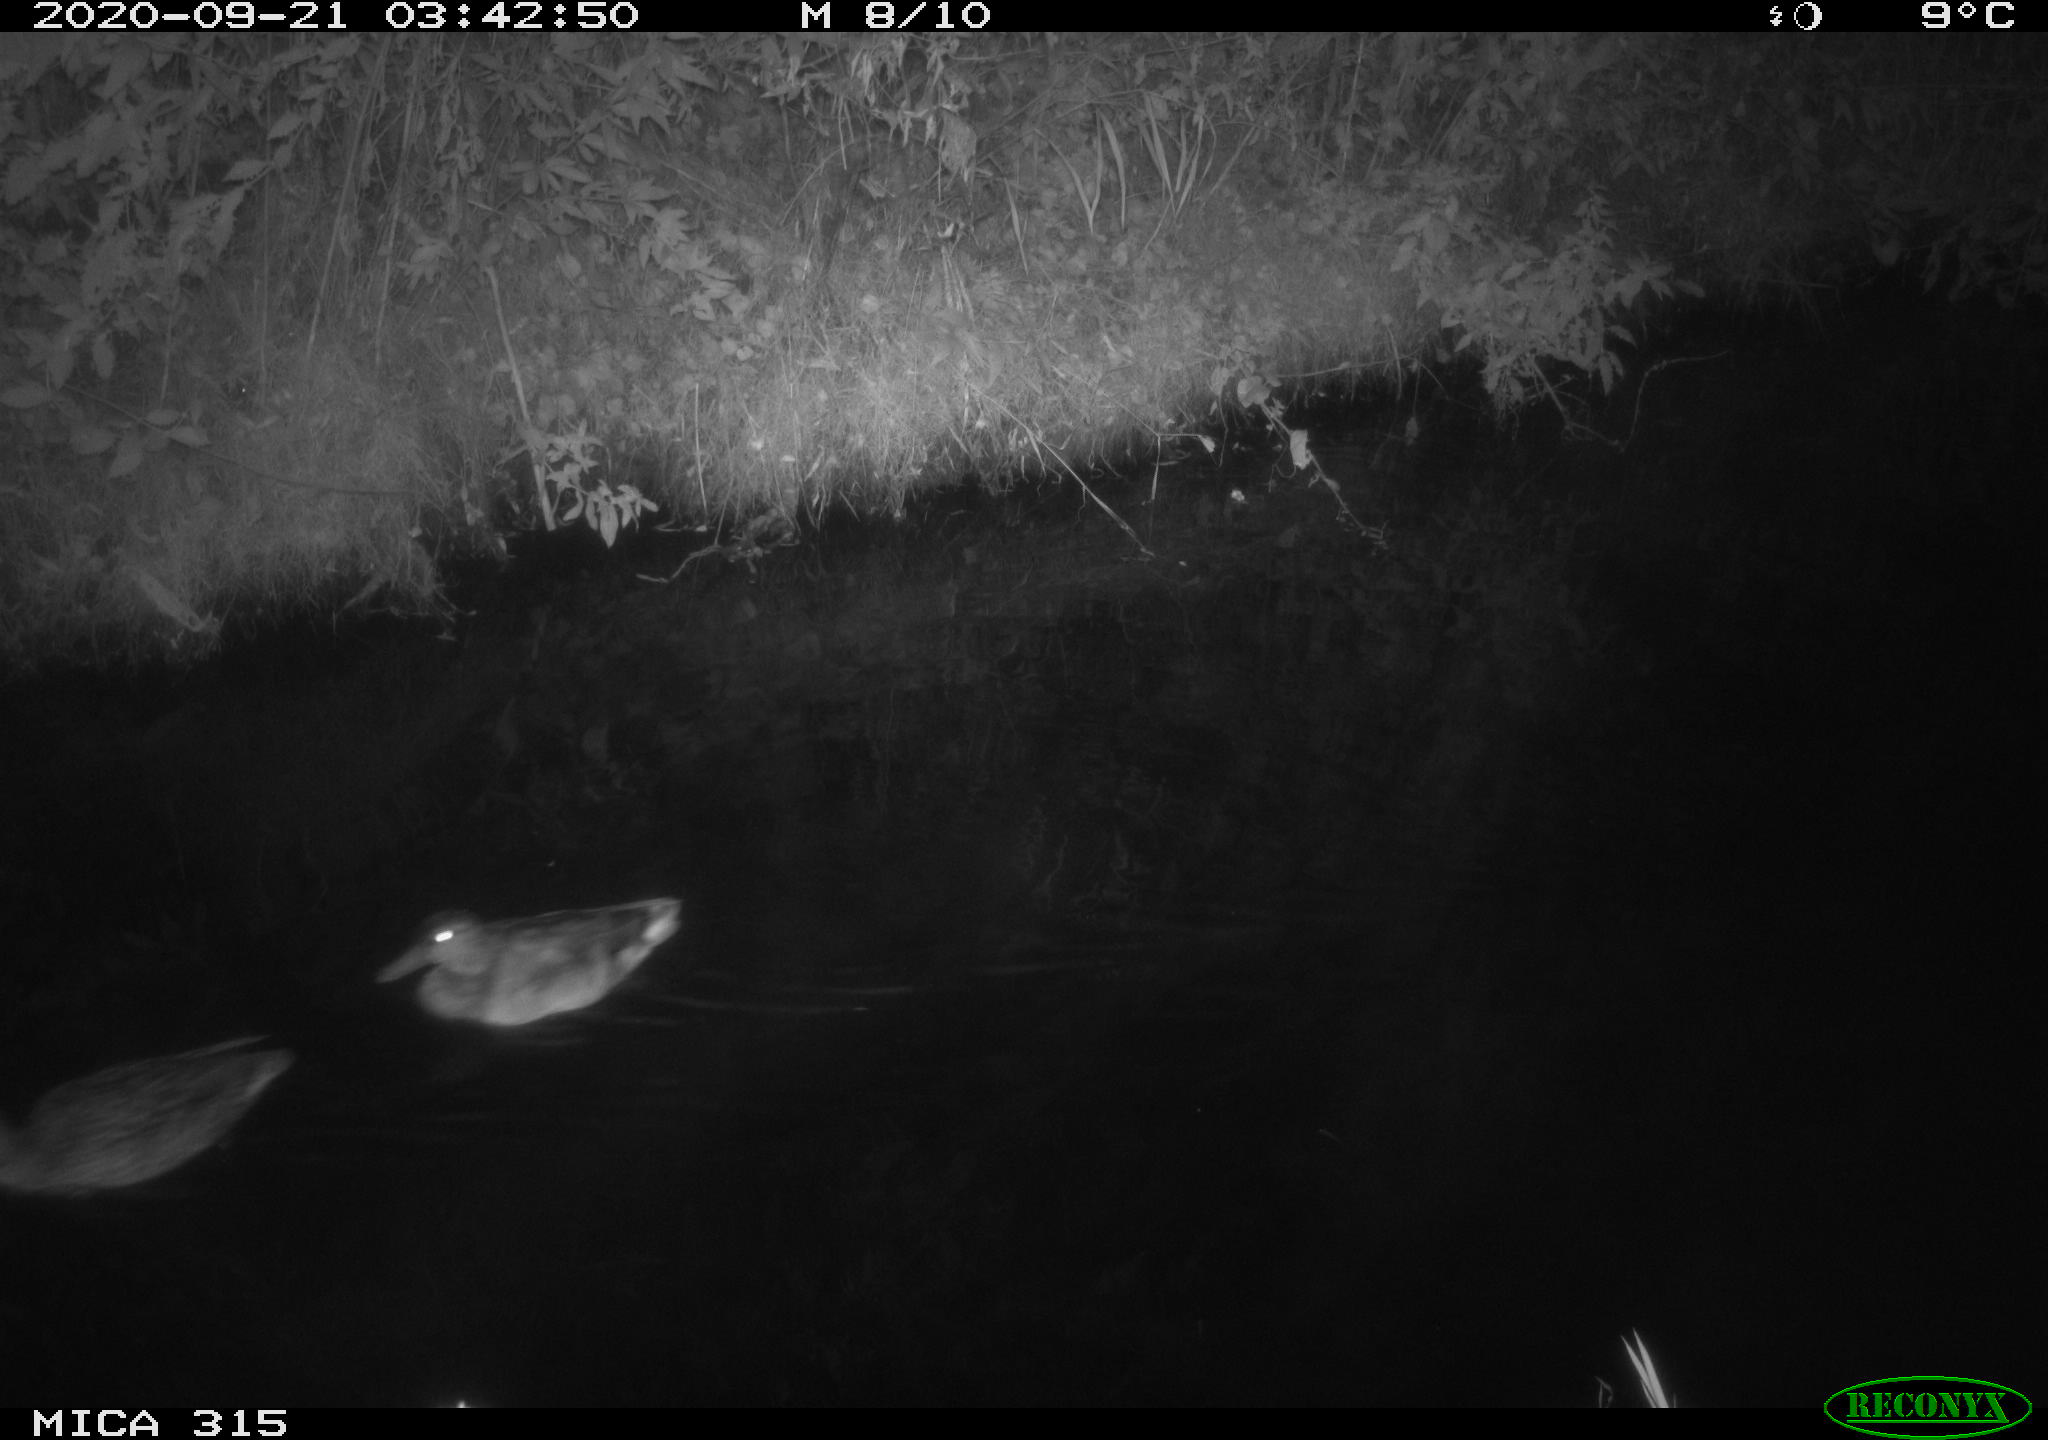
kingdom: Animalia
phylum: Chordata
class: Aves
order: Anseriformes
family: Anatidae
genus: Anas
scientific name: Anas platyrhynchos
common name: Mallard
